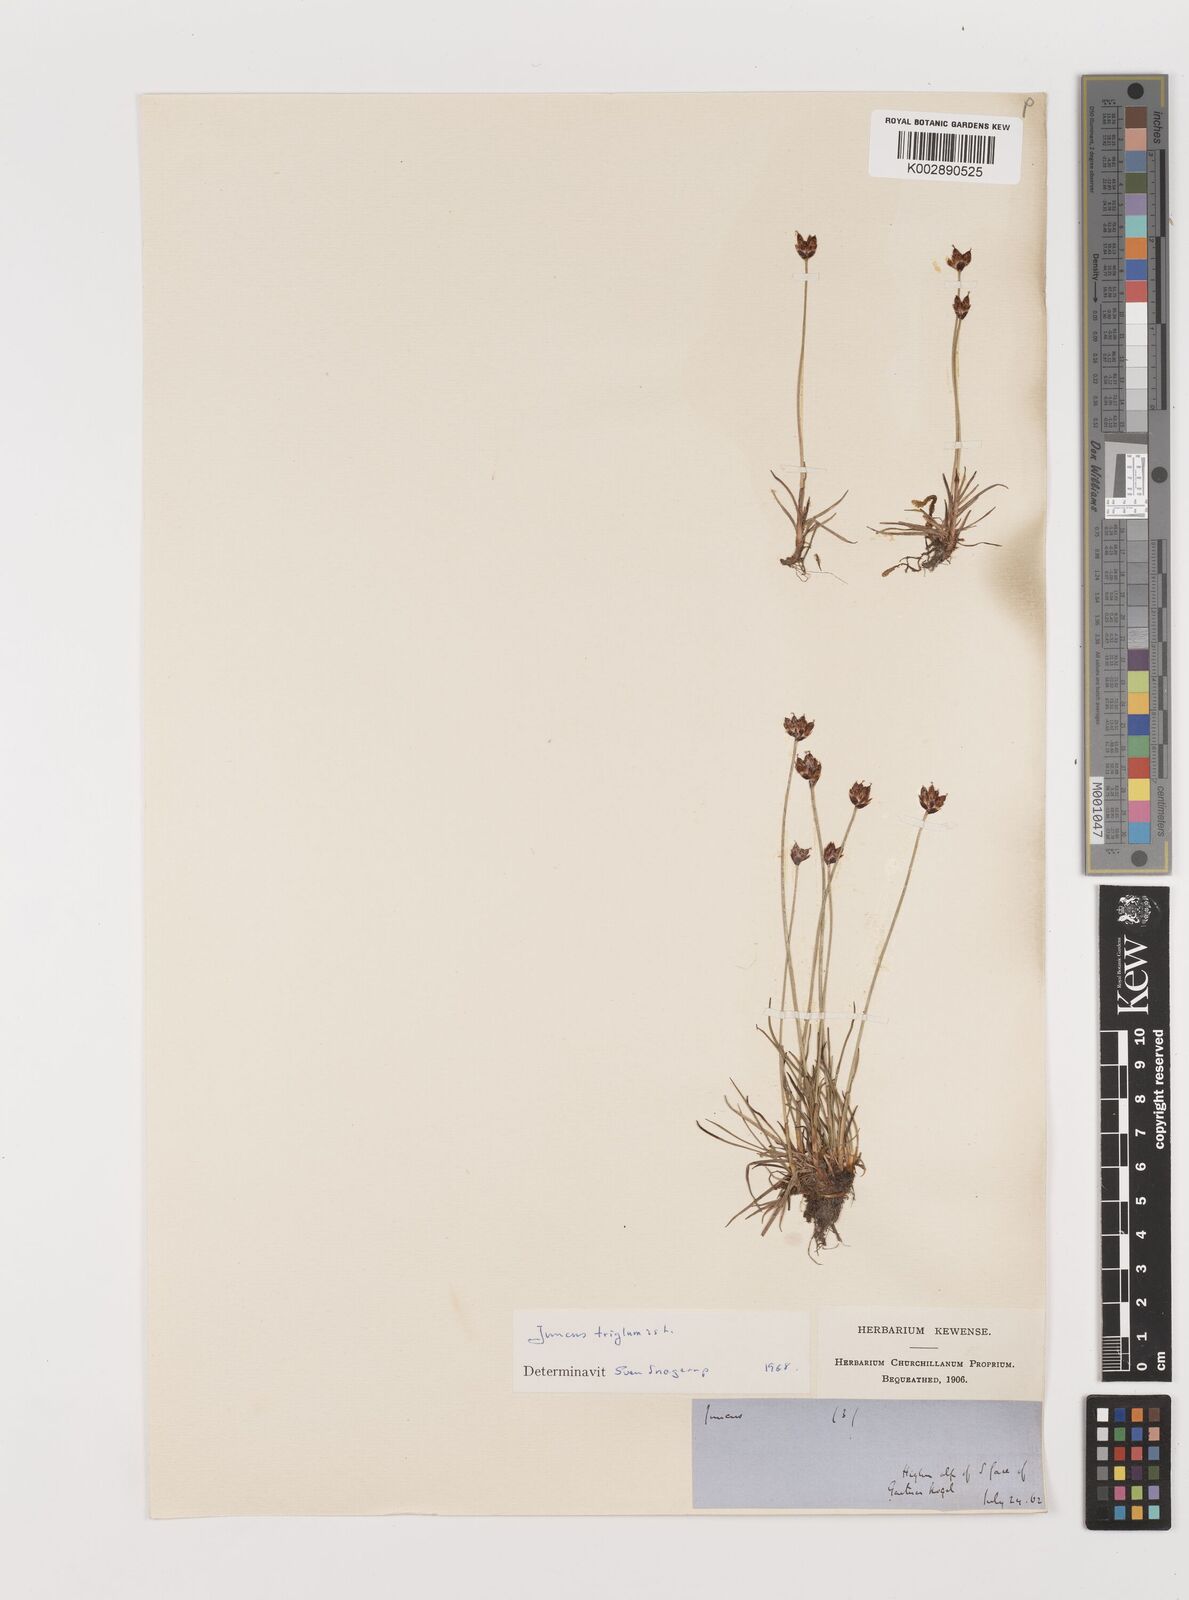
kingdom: Plantae
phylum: Tracheophyta
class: Liliopsida
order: Poales
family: Juncaceae
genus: Juncus
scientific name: Juncus triglumis
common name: Three-flowered rush
